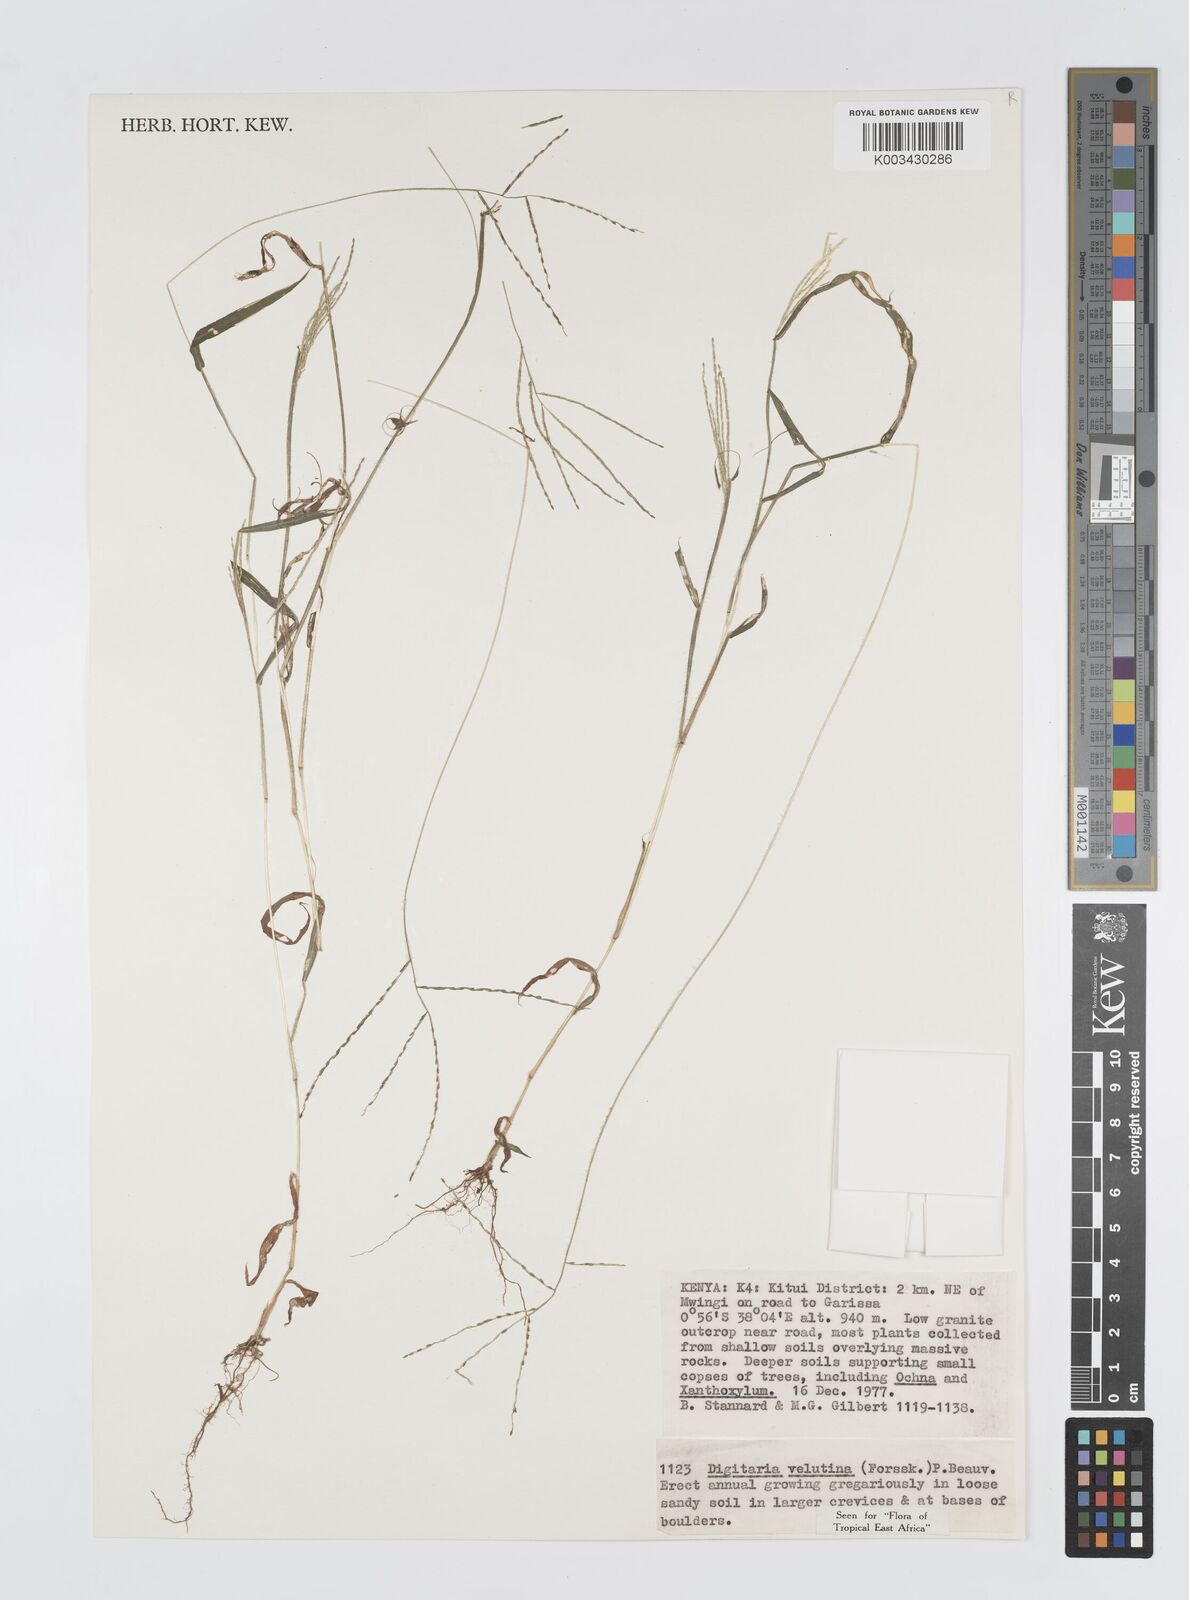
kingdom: Plantae
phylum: Tracheophyta
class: Liliopsida
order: Poales
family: Poaceae
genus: Digitaria
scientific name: Digitaria velutina
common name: Long-plume finger grass
